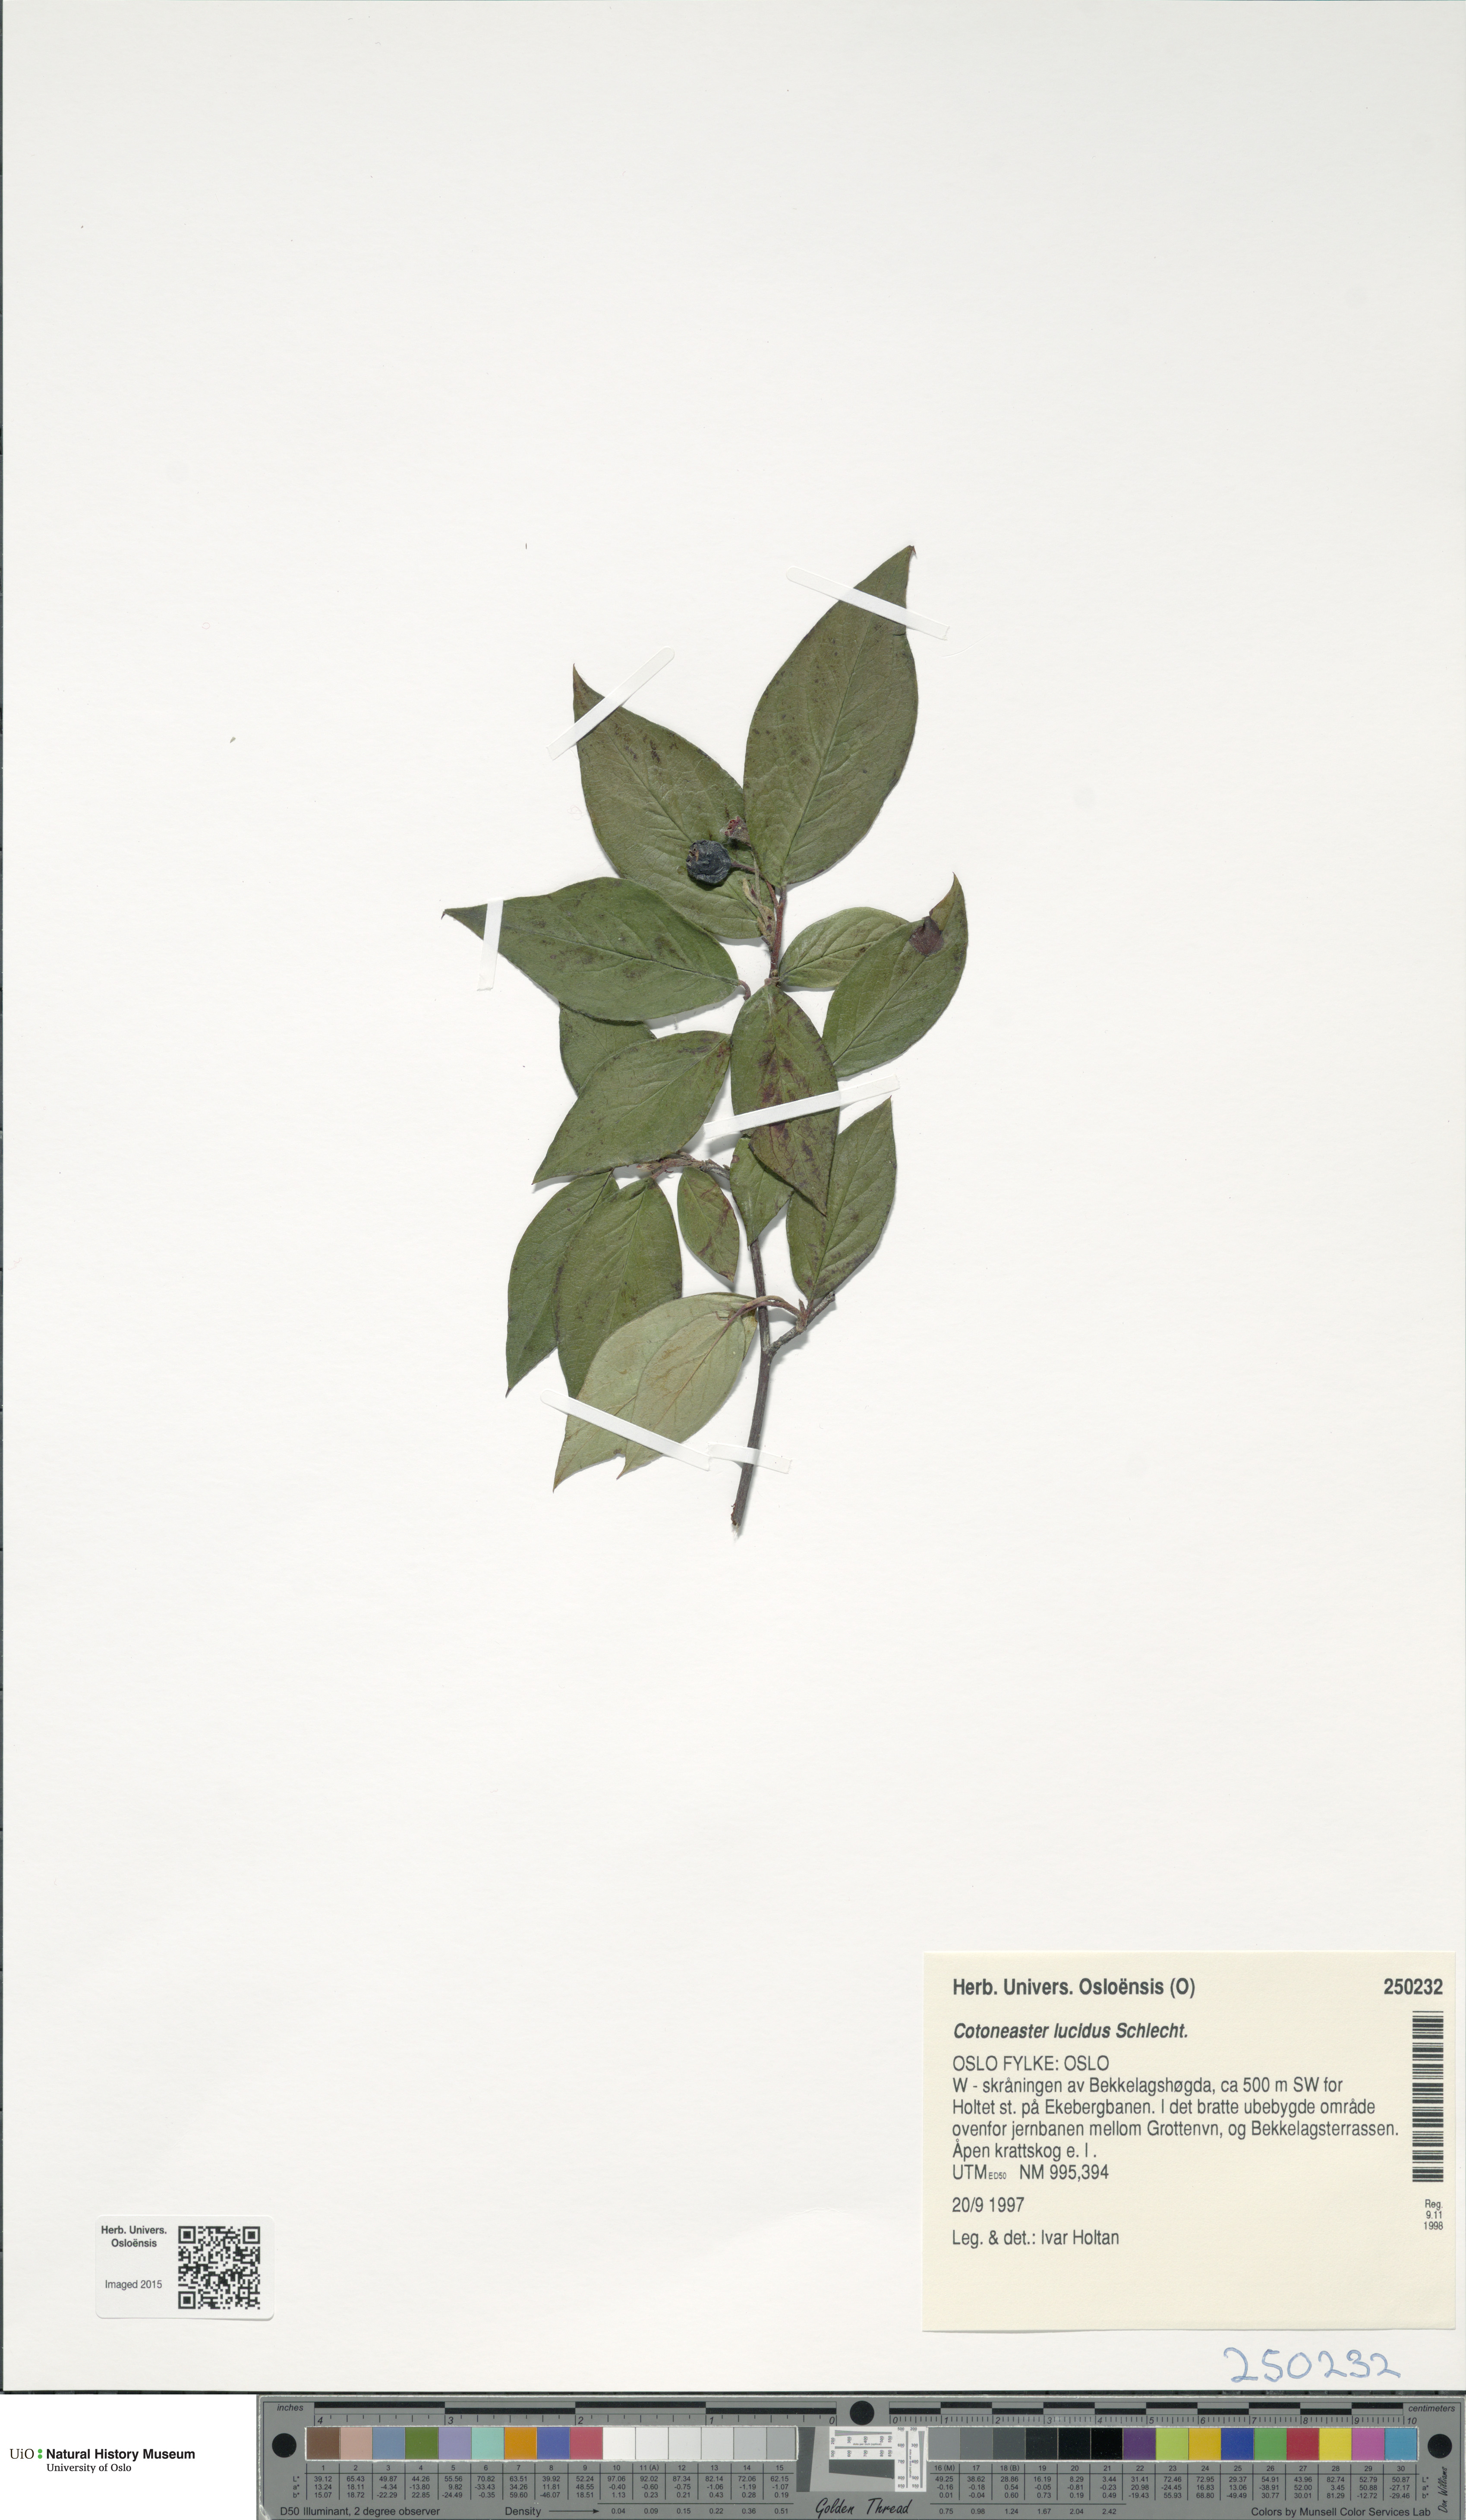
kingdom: Plantae
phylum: Tracheophyta
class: Magnoliopsida
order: Rosales
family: Rosaceae
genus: Cotoneaster
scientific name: Cotoneaster acutifolius
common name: Peking cotoneaster
